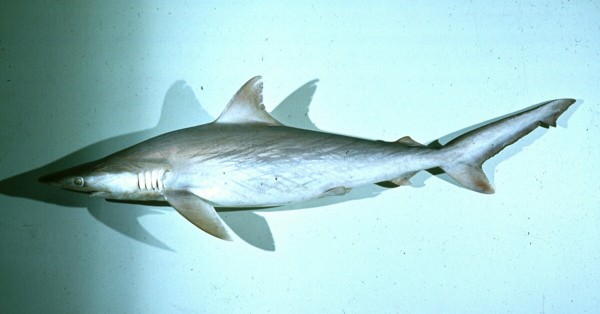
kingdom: Animalia
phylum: Chordata
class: Elasmobranchii
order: Carcharhiniformes
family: Carcharhinidae
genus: Carcharhinus
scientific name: Carcharhinus macloti
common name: Hardnose shark
